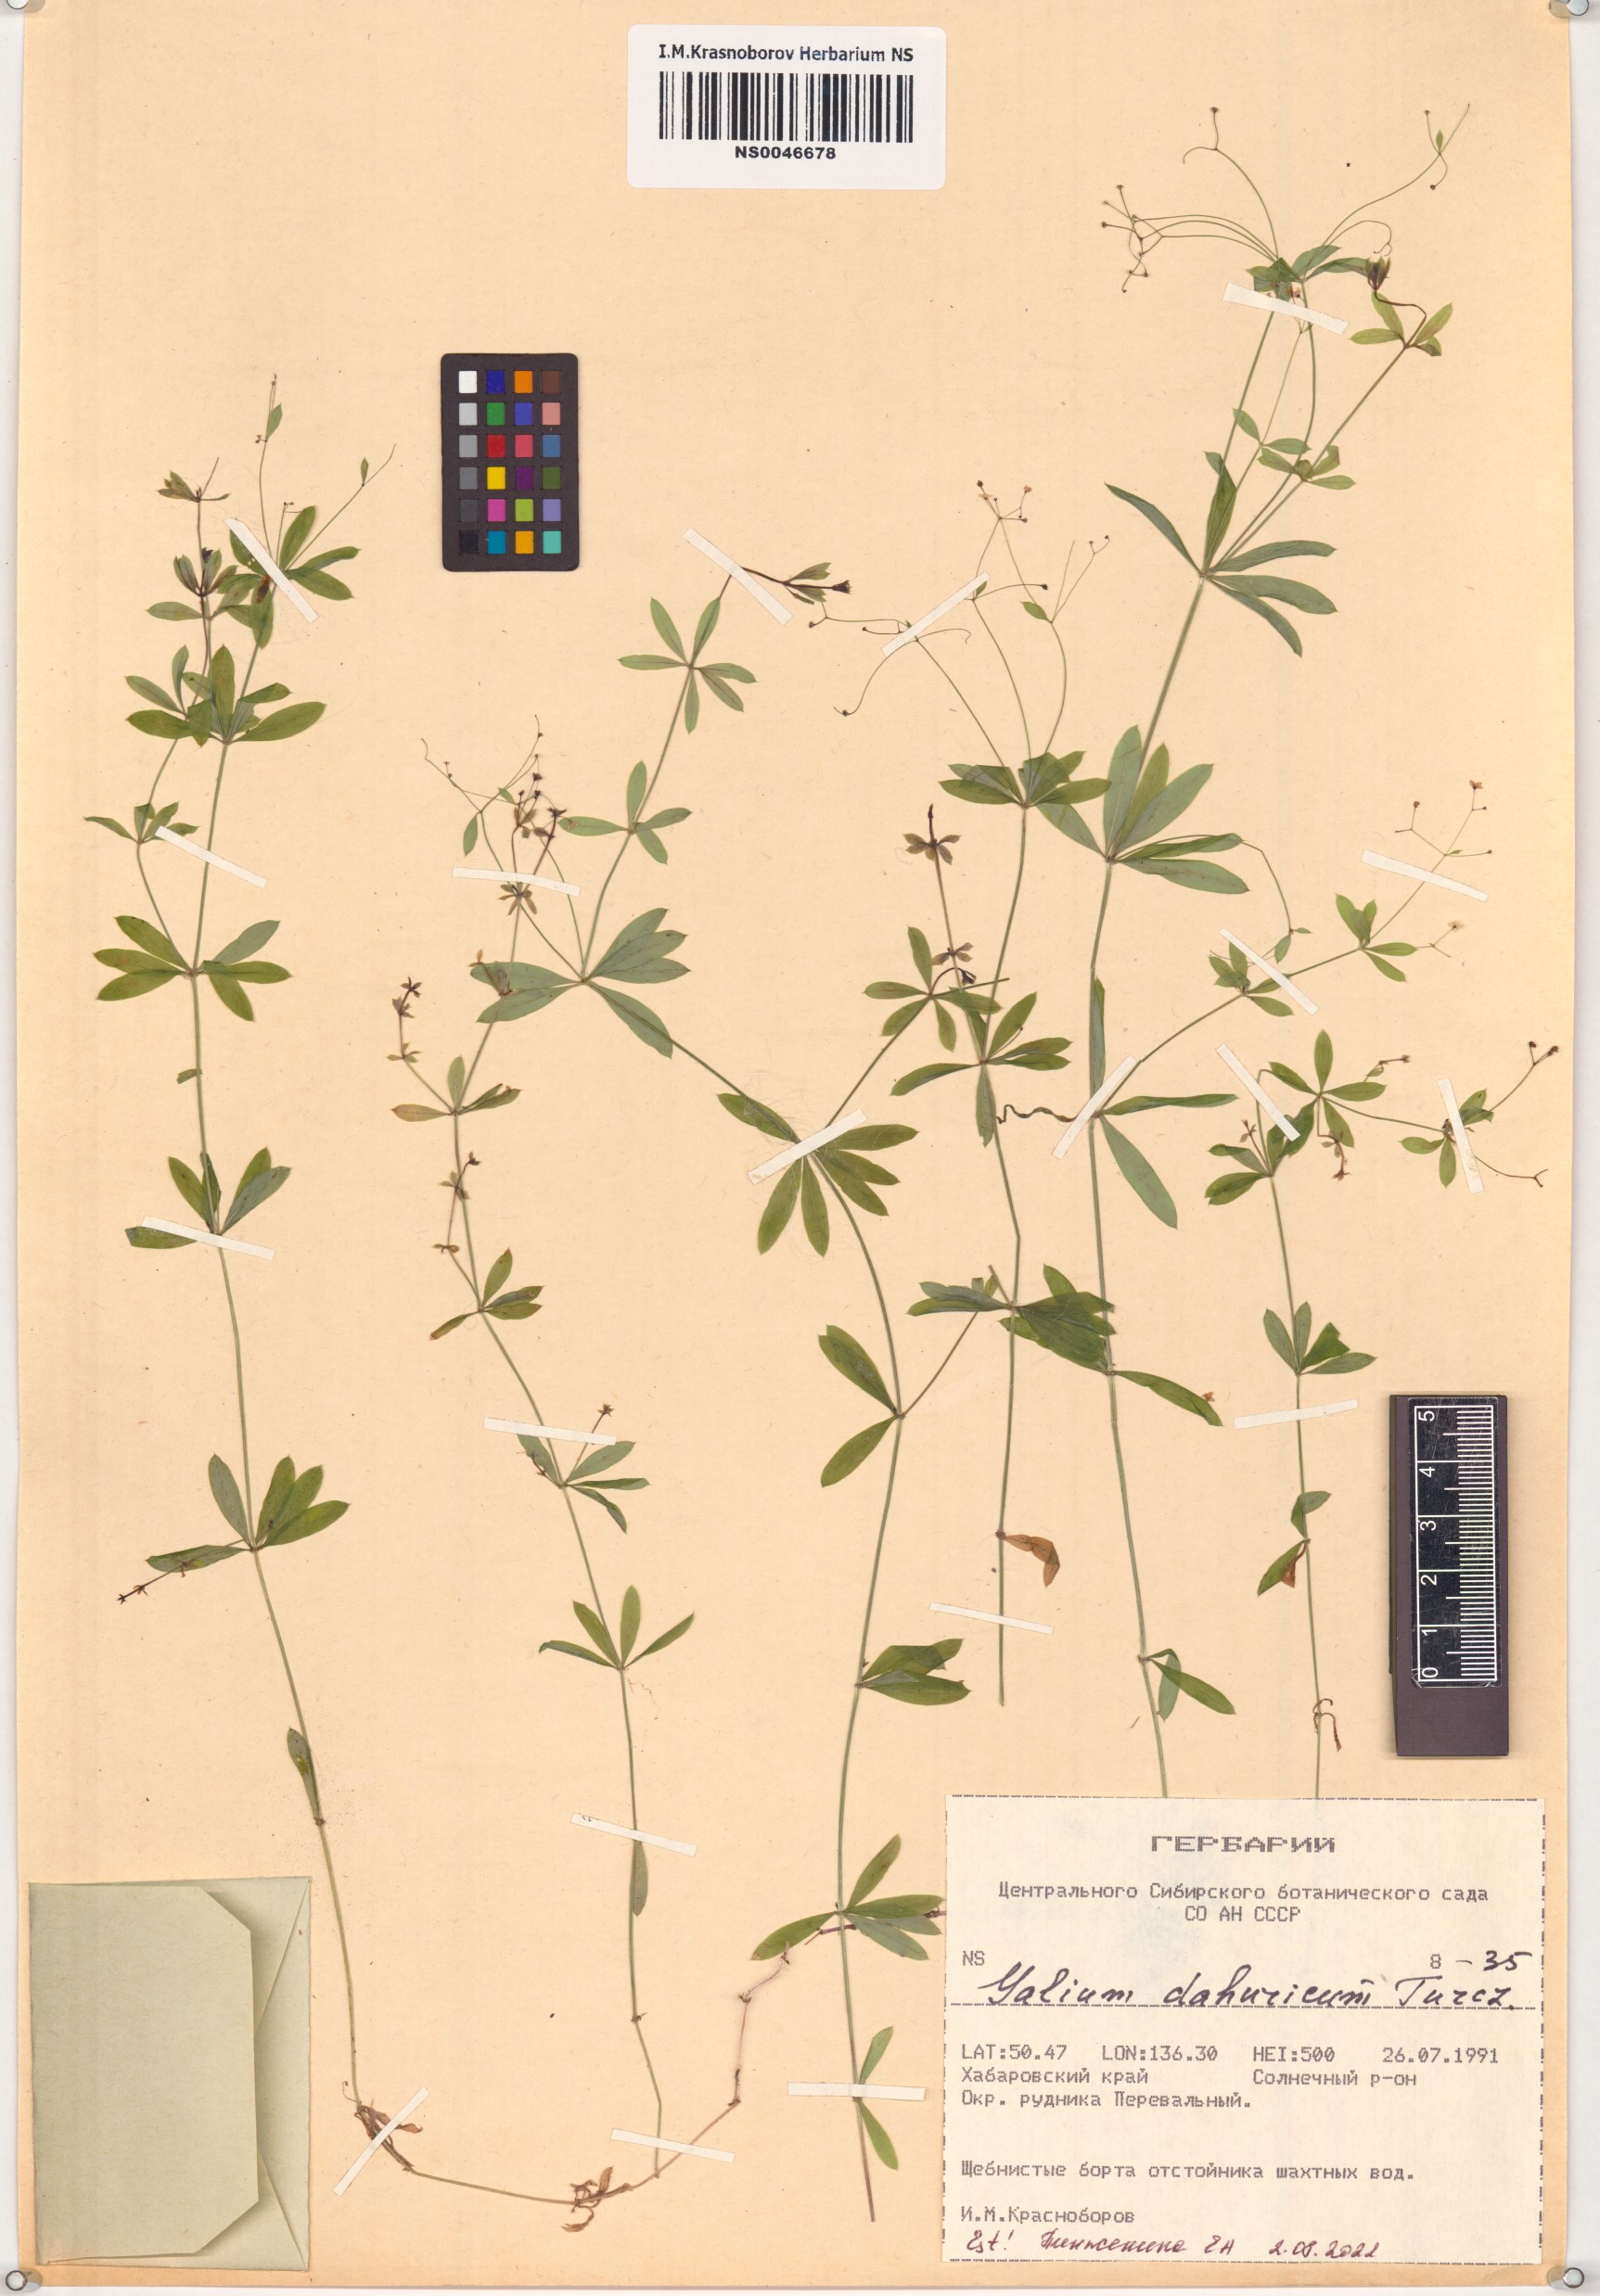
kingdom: Plantae
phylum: Tracheophyta
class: Magnoliopsida
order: Gentianales
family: Rubiaceae
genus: Galium
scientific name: Galium dahuricum
